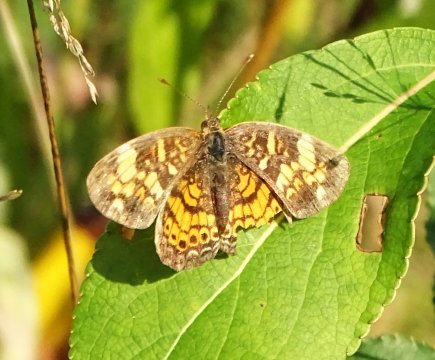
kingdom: Animalia
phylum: Arthropoda
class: Insecta
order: Lepidoptera
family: Nymphalidae
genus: Phyciodes
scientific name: Phyciodes
